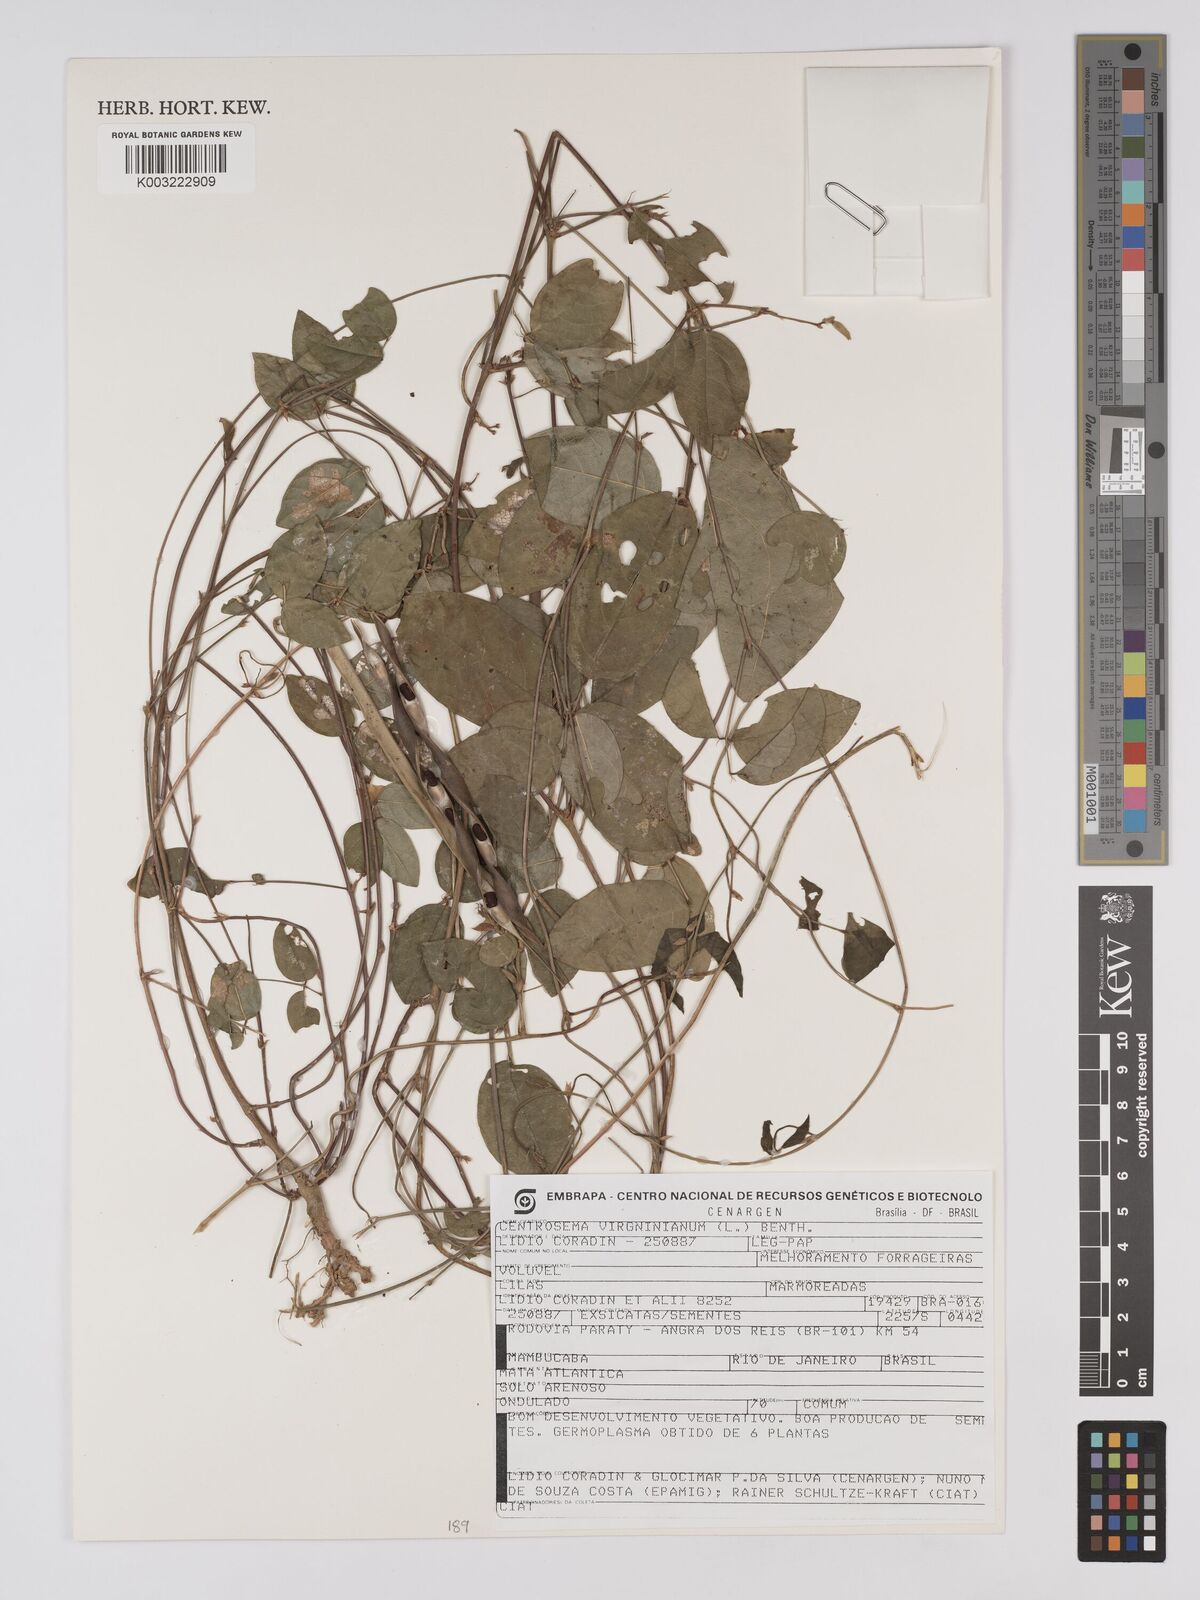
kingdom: Plantae
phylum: Tracheophyta
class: Magnoliopsida
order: Fabales
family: Fabaceae
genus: Centrosema
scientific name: Centrosema virginianum
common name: Butterfly-pea
